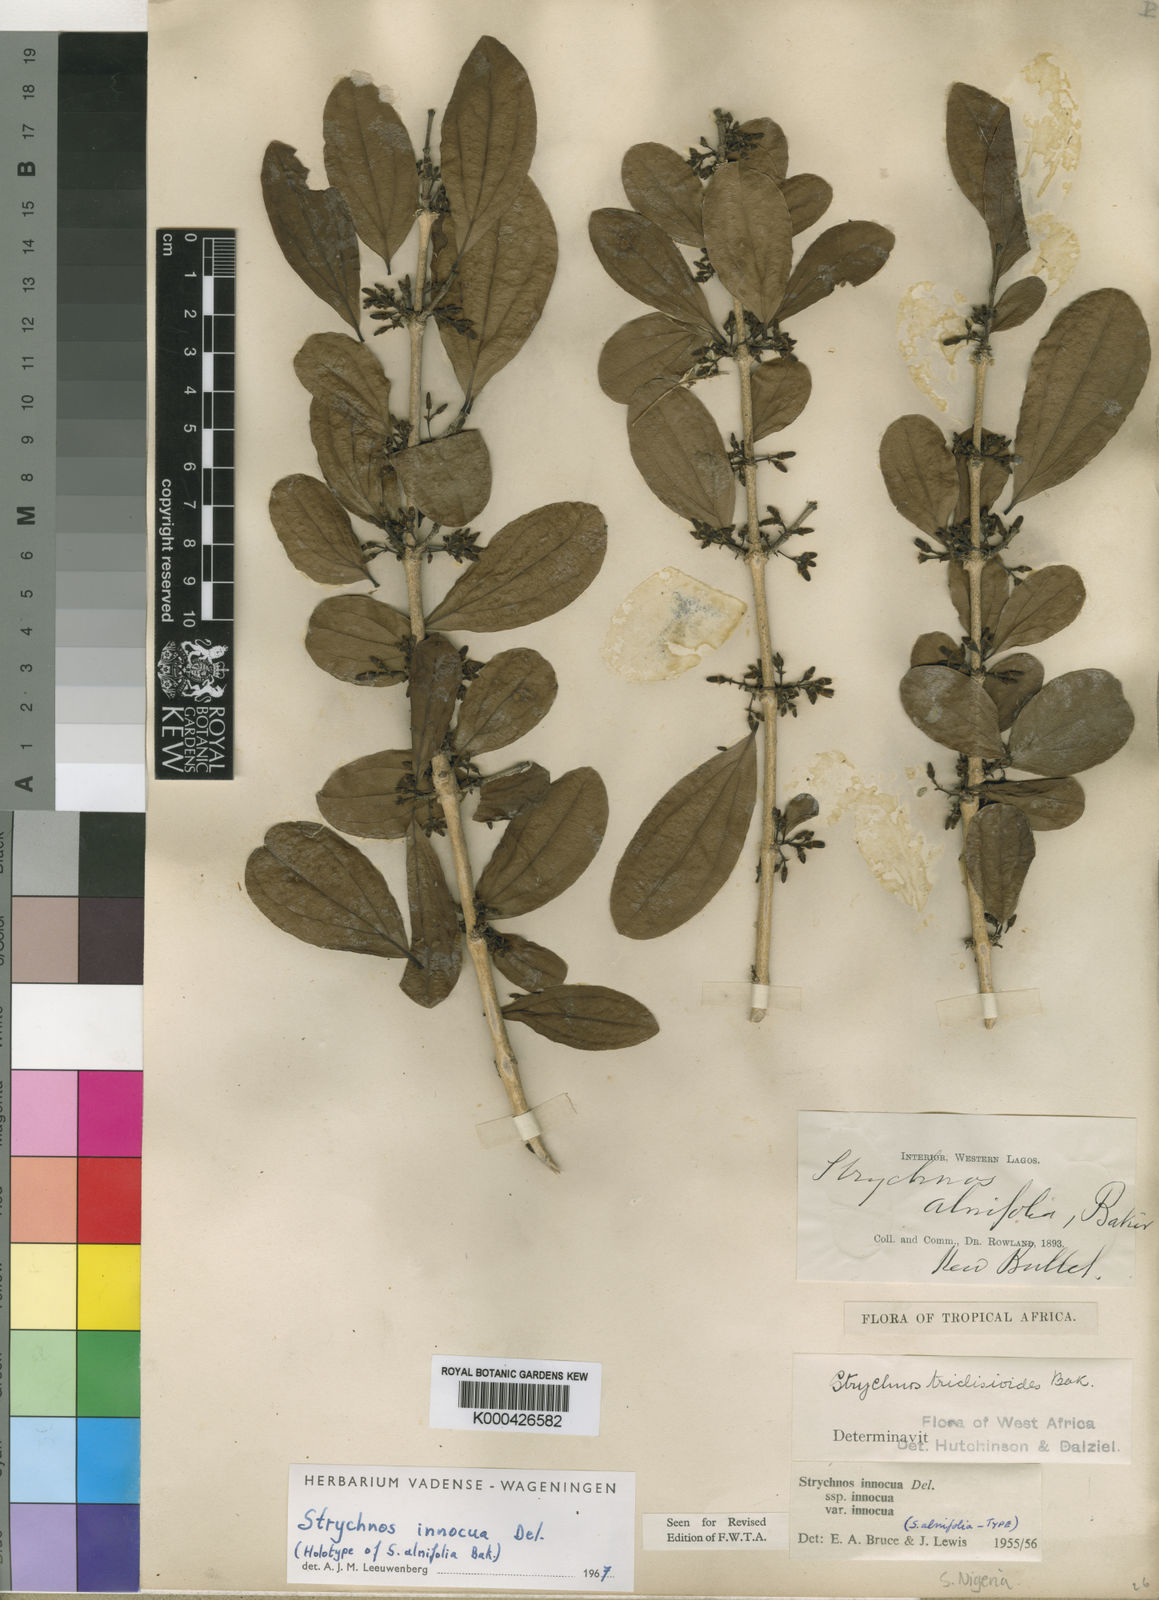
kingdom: Plantae
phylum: Tracheophyta
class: Magnoliopsida
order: Gentianales
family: Loganiaceae
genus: Strychnos
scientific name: Strychnos innocua
